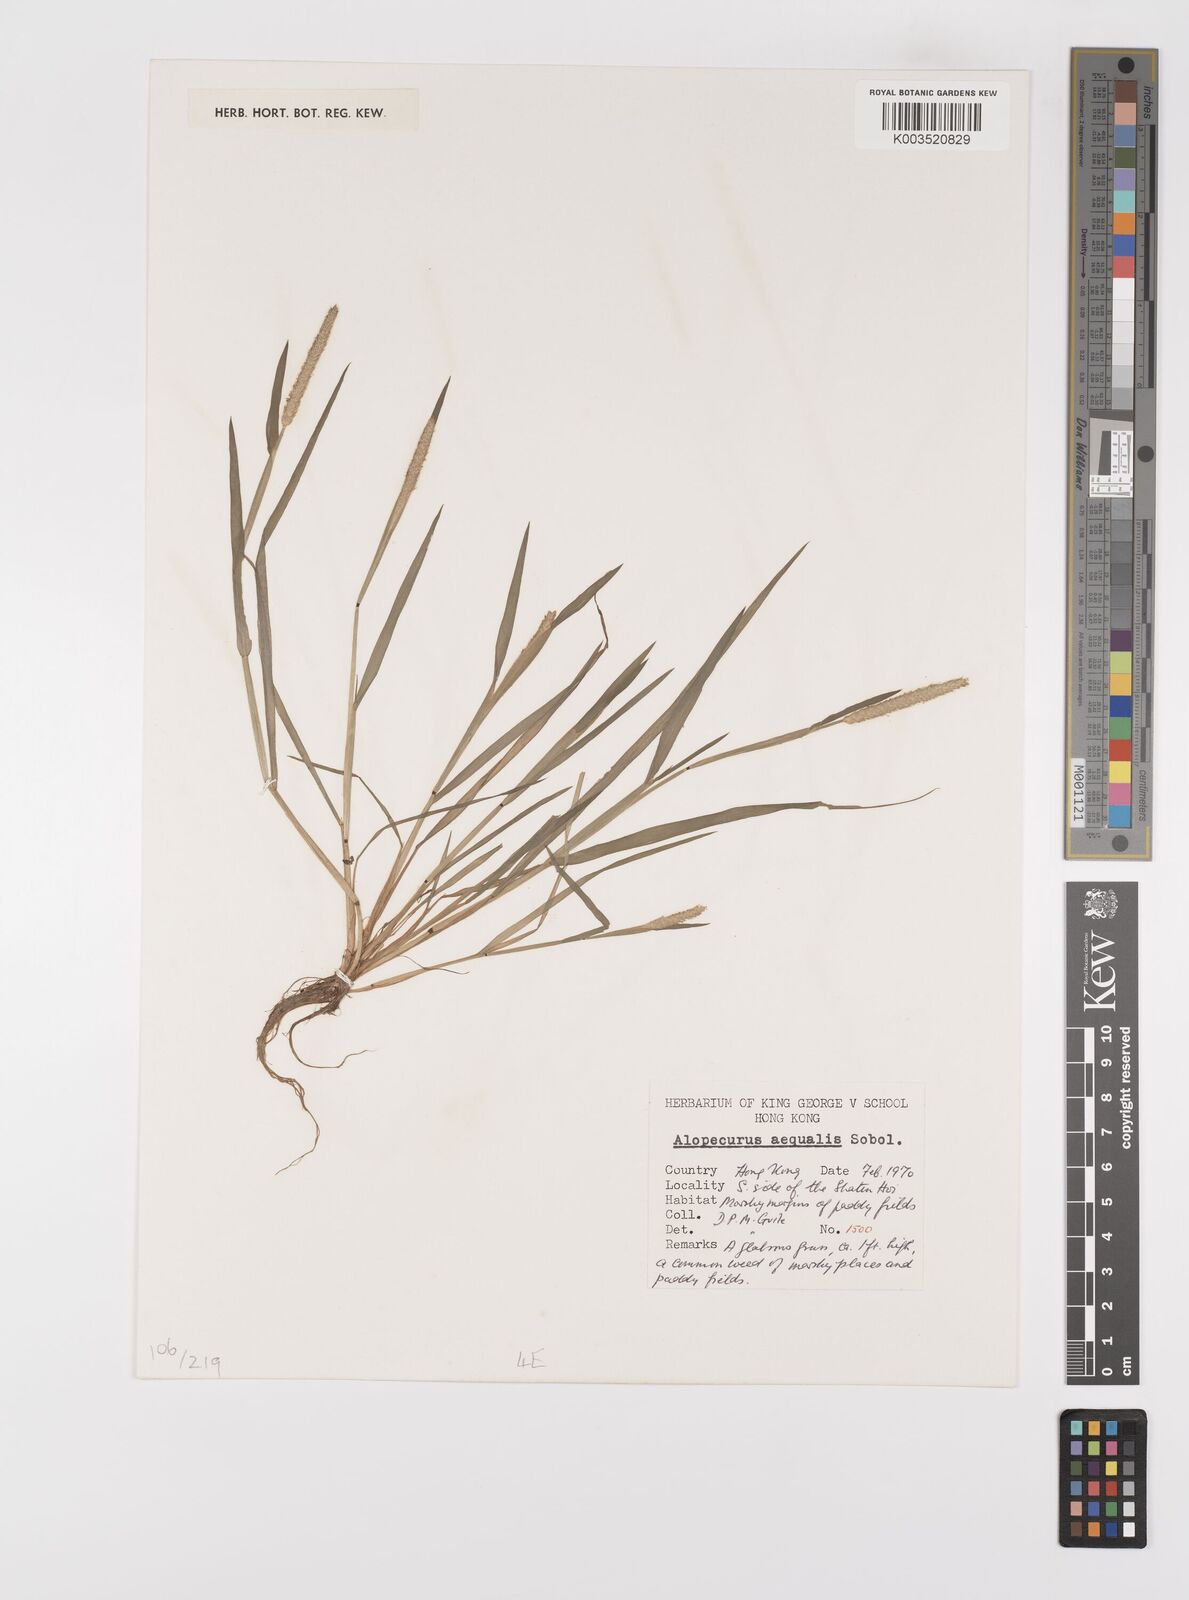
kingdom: Plantae
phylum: Tracheophyta
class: Liliopsida
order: Poales
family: Poaceae
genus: Alopecurus
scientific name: Alopecurus aequalis
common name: Orange foxtail
